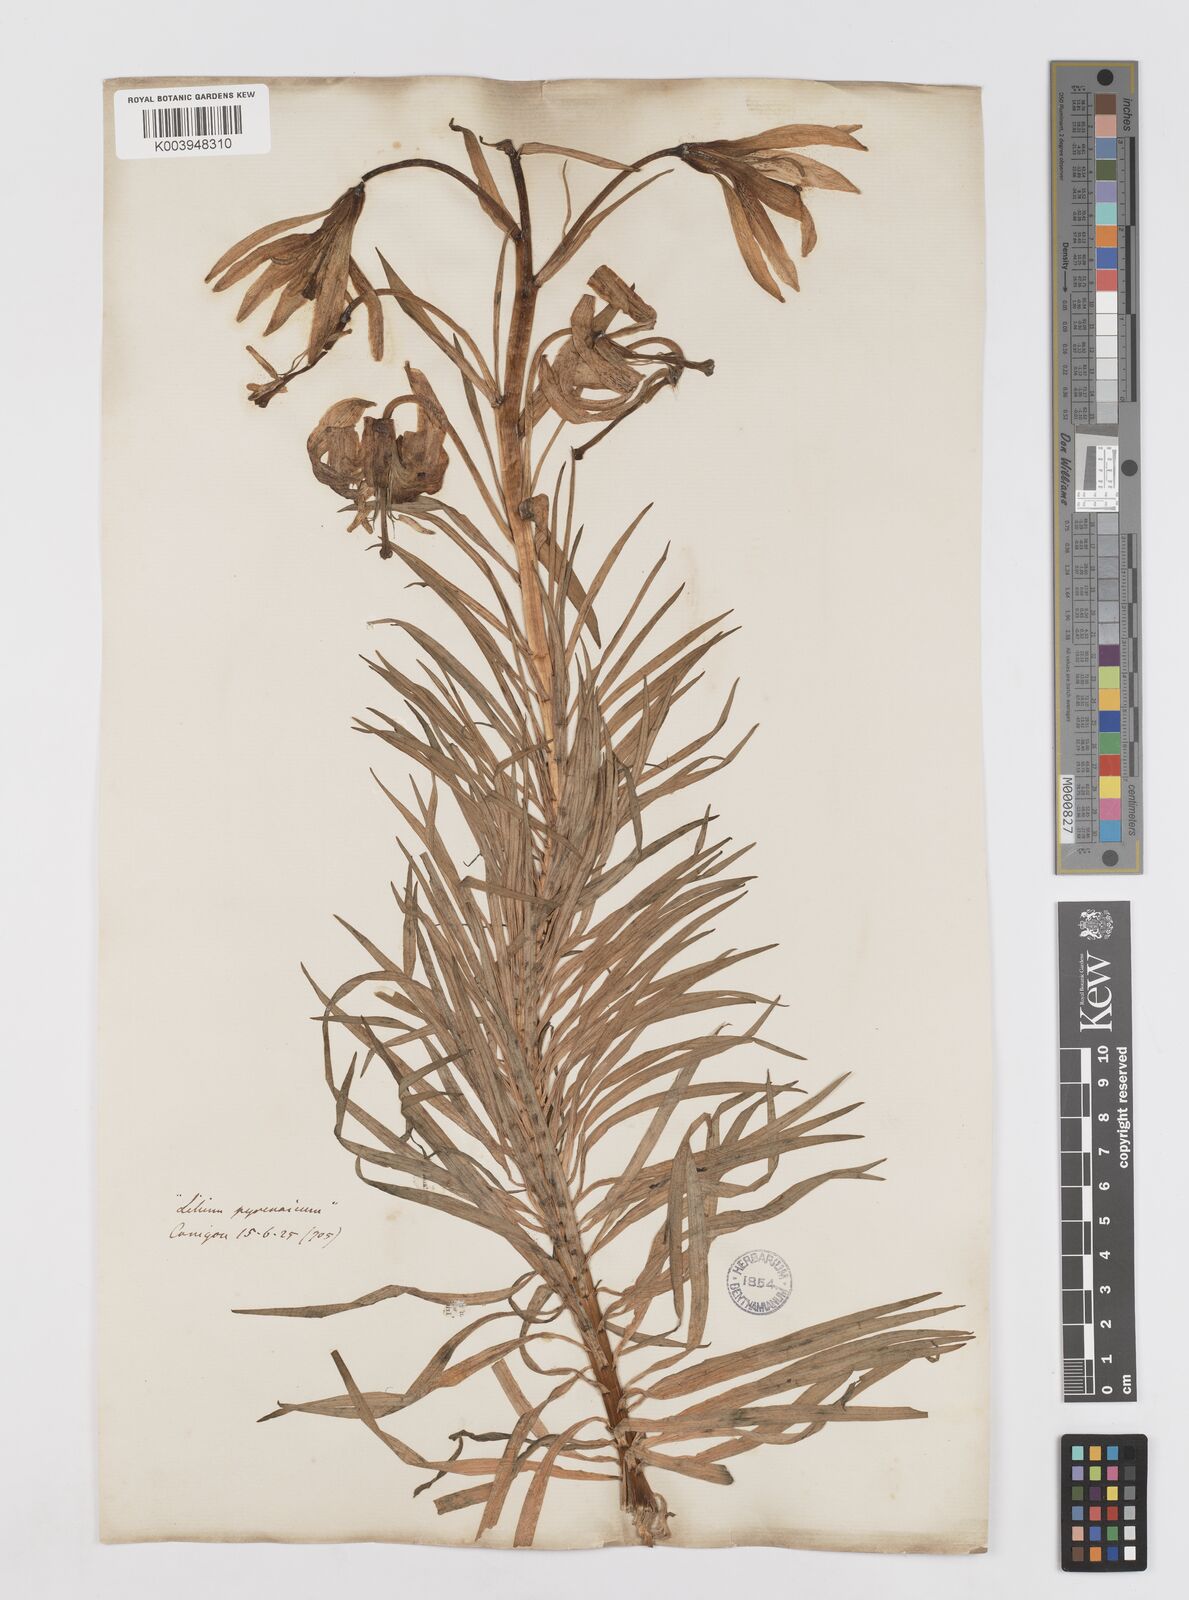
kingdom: Plantae
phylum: Tracheophyta
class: Liliopsida
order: Liliales
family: Liliaceae
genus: Lilium
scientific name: Lilium pyrenaicum
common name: Pyrenean lily
